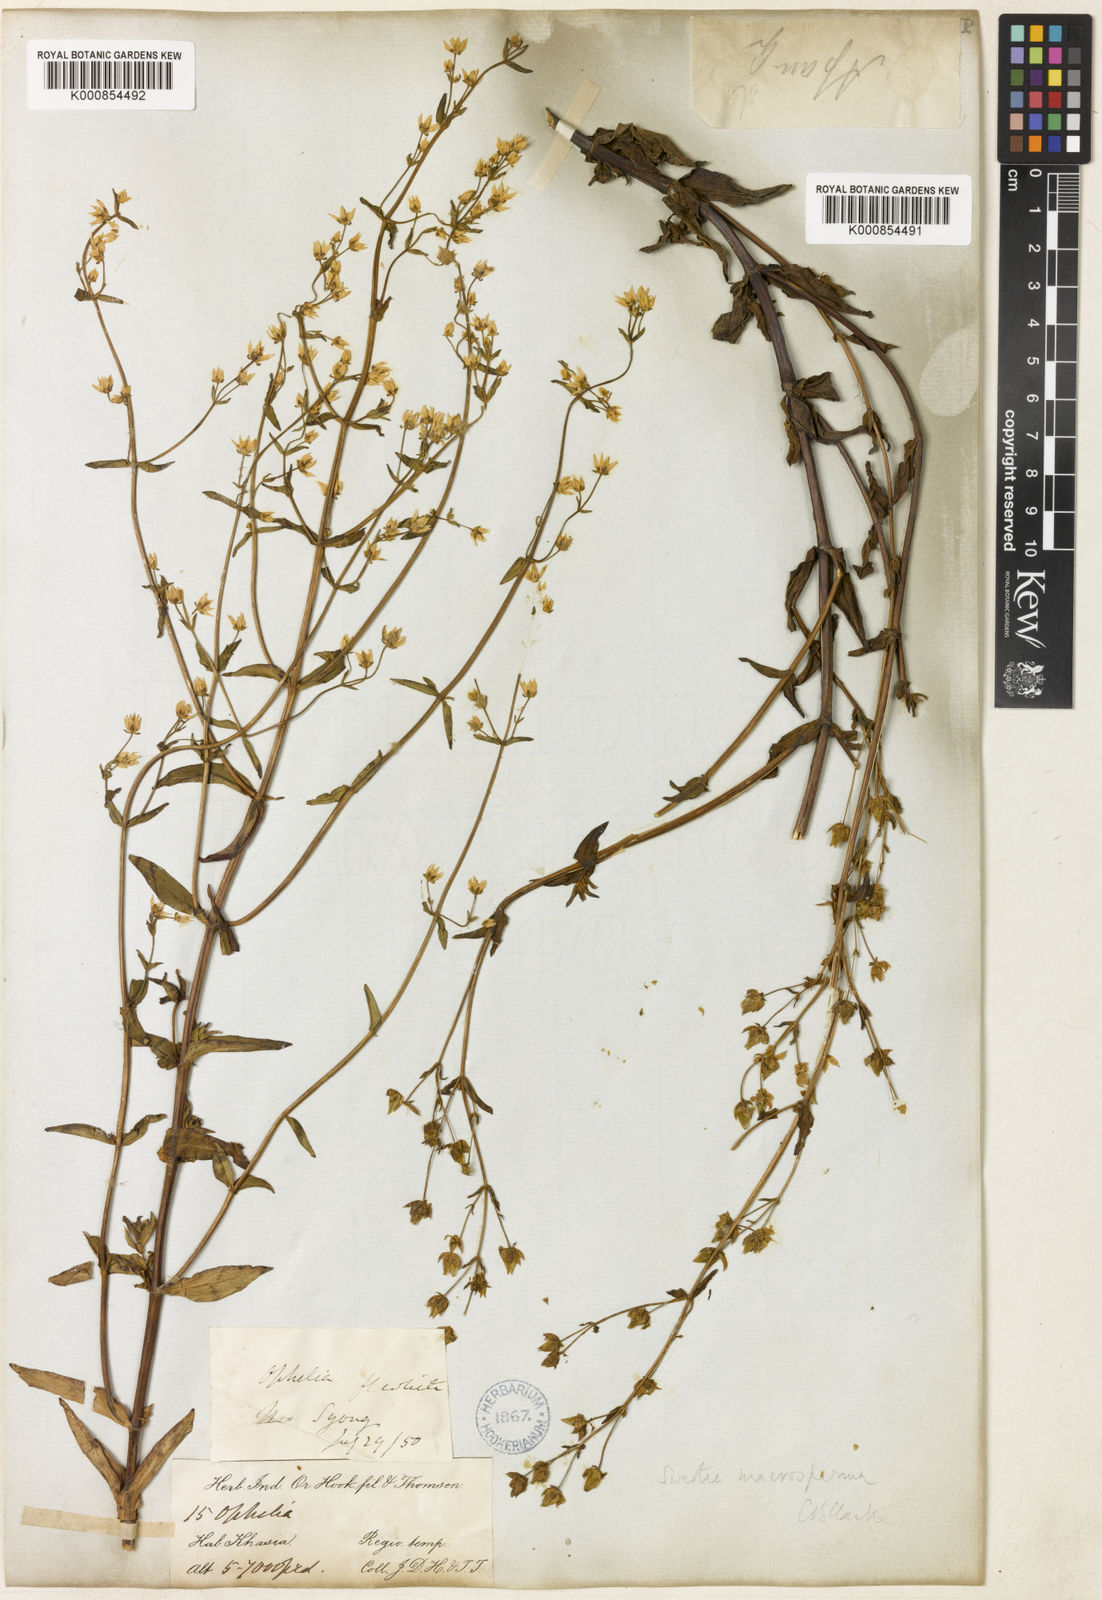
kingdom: Plantae
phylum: Tracheophyta
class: Magnoliopsida
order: Gentianales
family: Gentianaceae
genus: Swertia
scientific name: Swertia macrosperma
